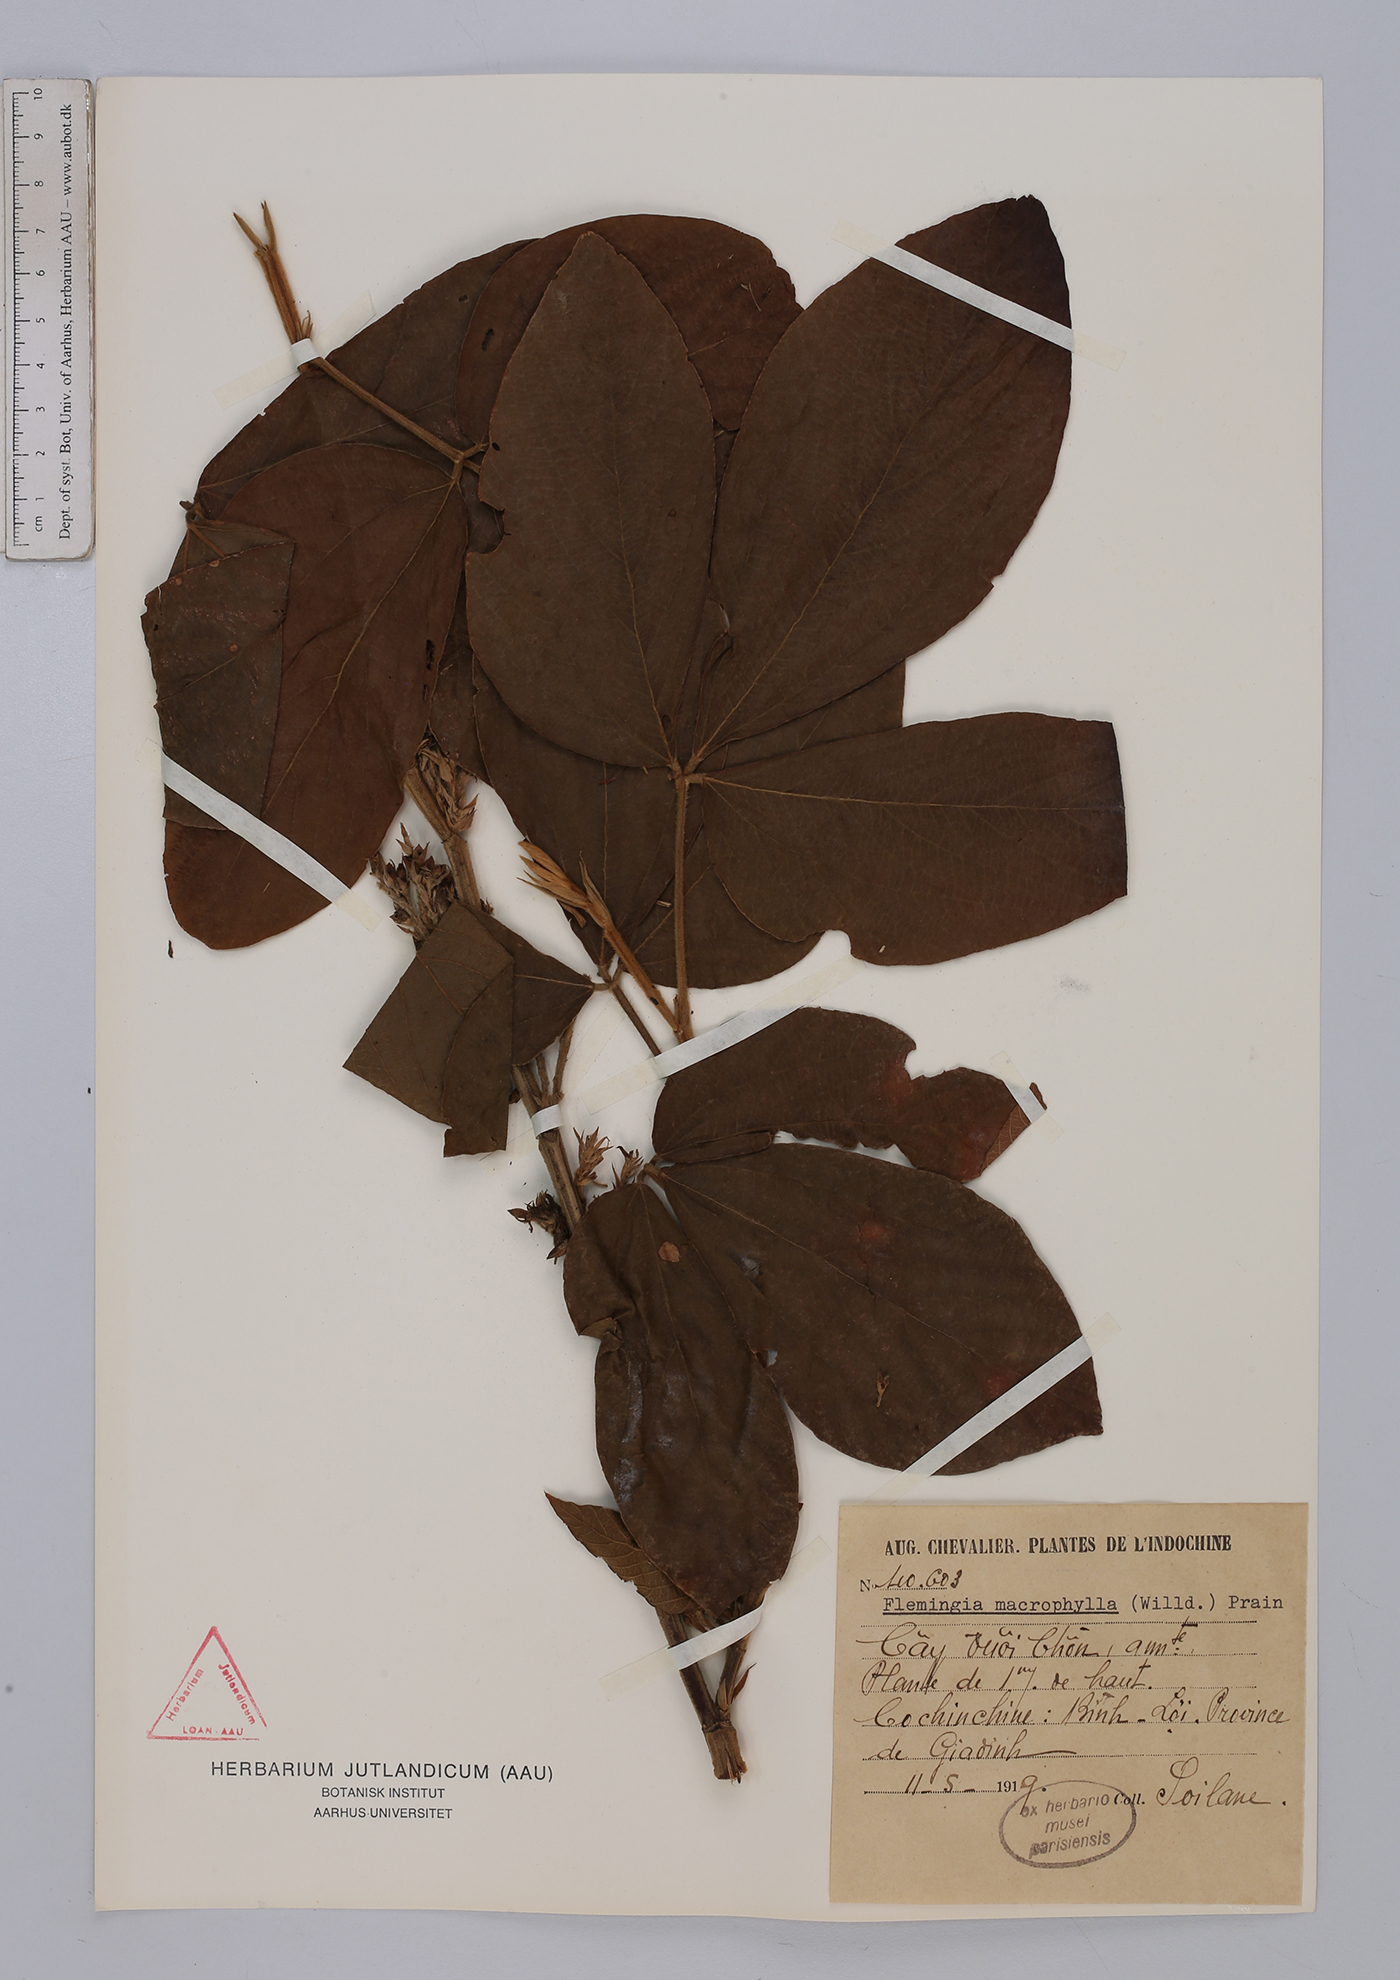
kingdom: Plantae
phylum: Tracheophyta
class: Magnoliopsida
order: Fabales
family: Fabaceae
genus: Flemingia
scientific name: Flemingia macrophylla
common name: Flemingia
